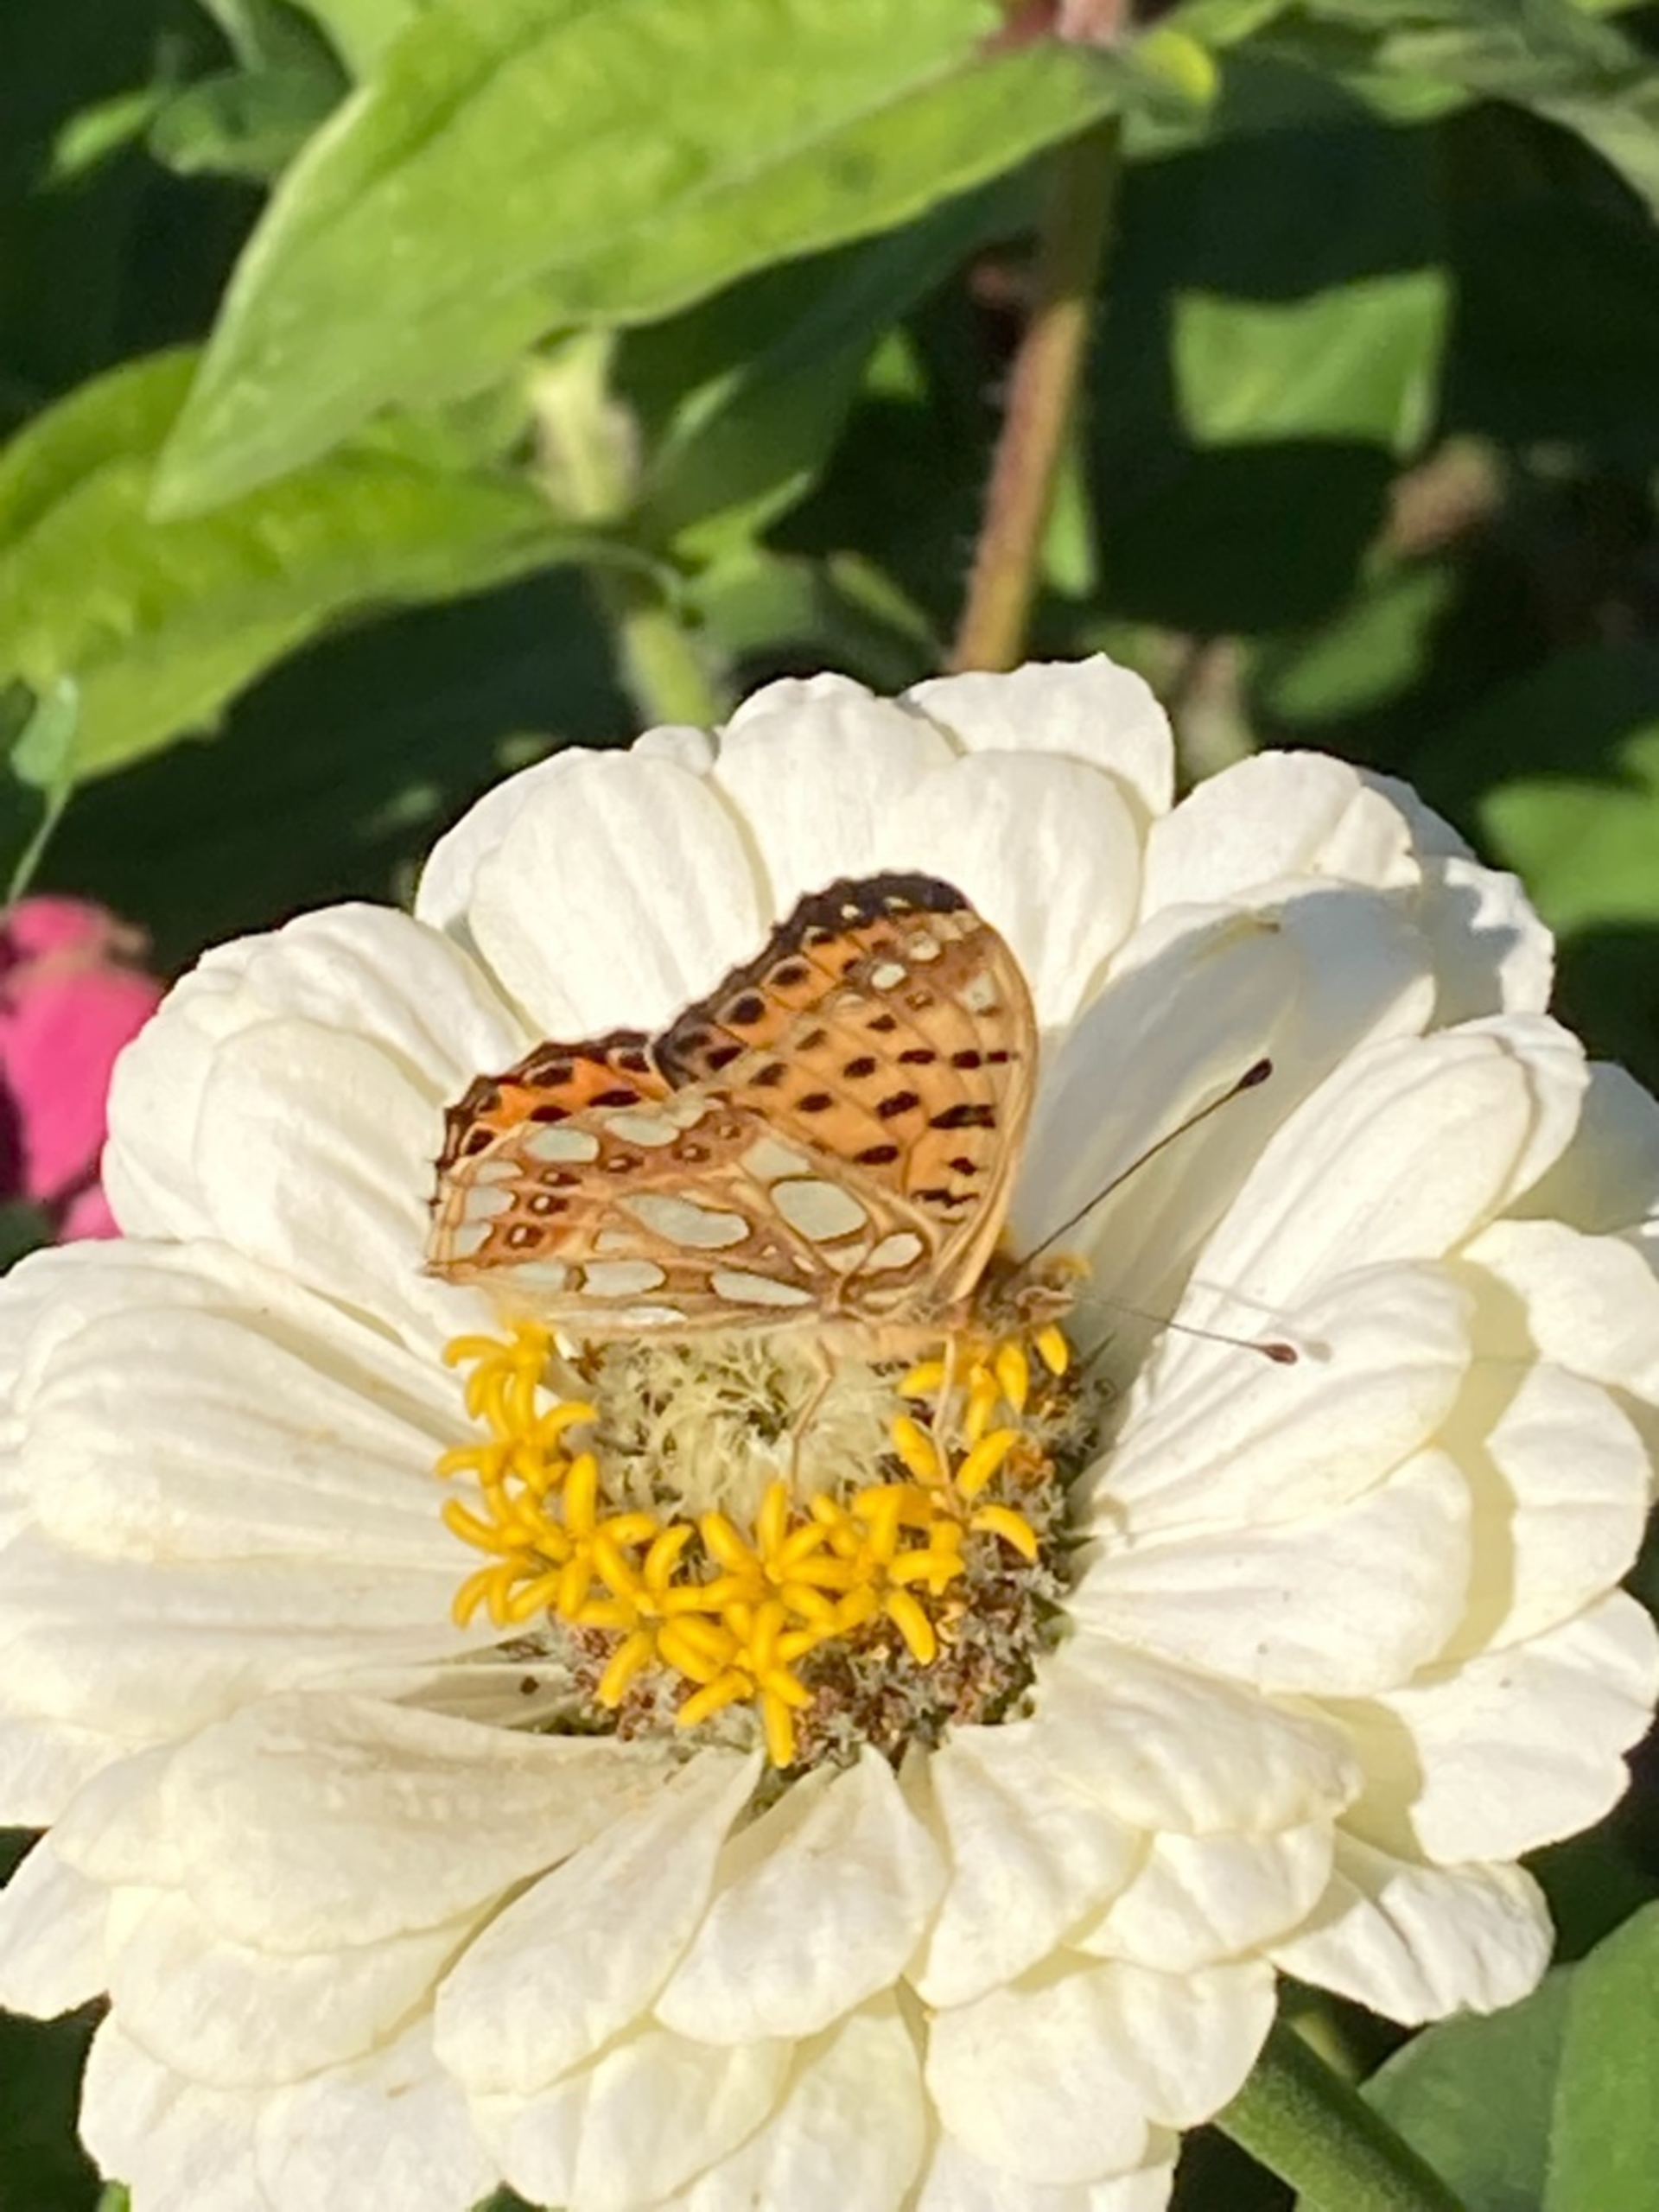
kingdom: Animalia
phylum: Arthropoda
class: Insecta
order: Lepidoptera
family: Nymphalidae
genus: Issoria
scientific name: Issoria lathonia
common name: Storplettet perlemorsommerfugl
